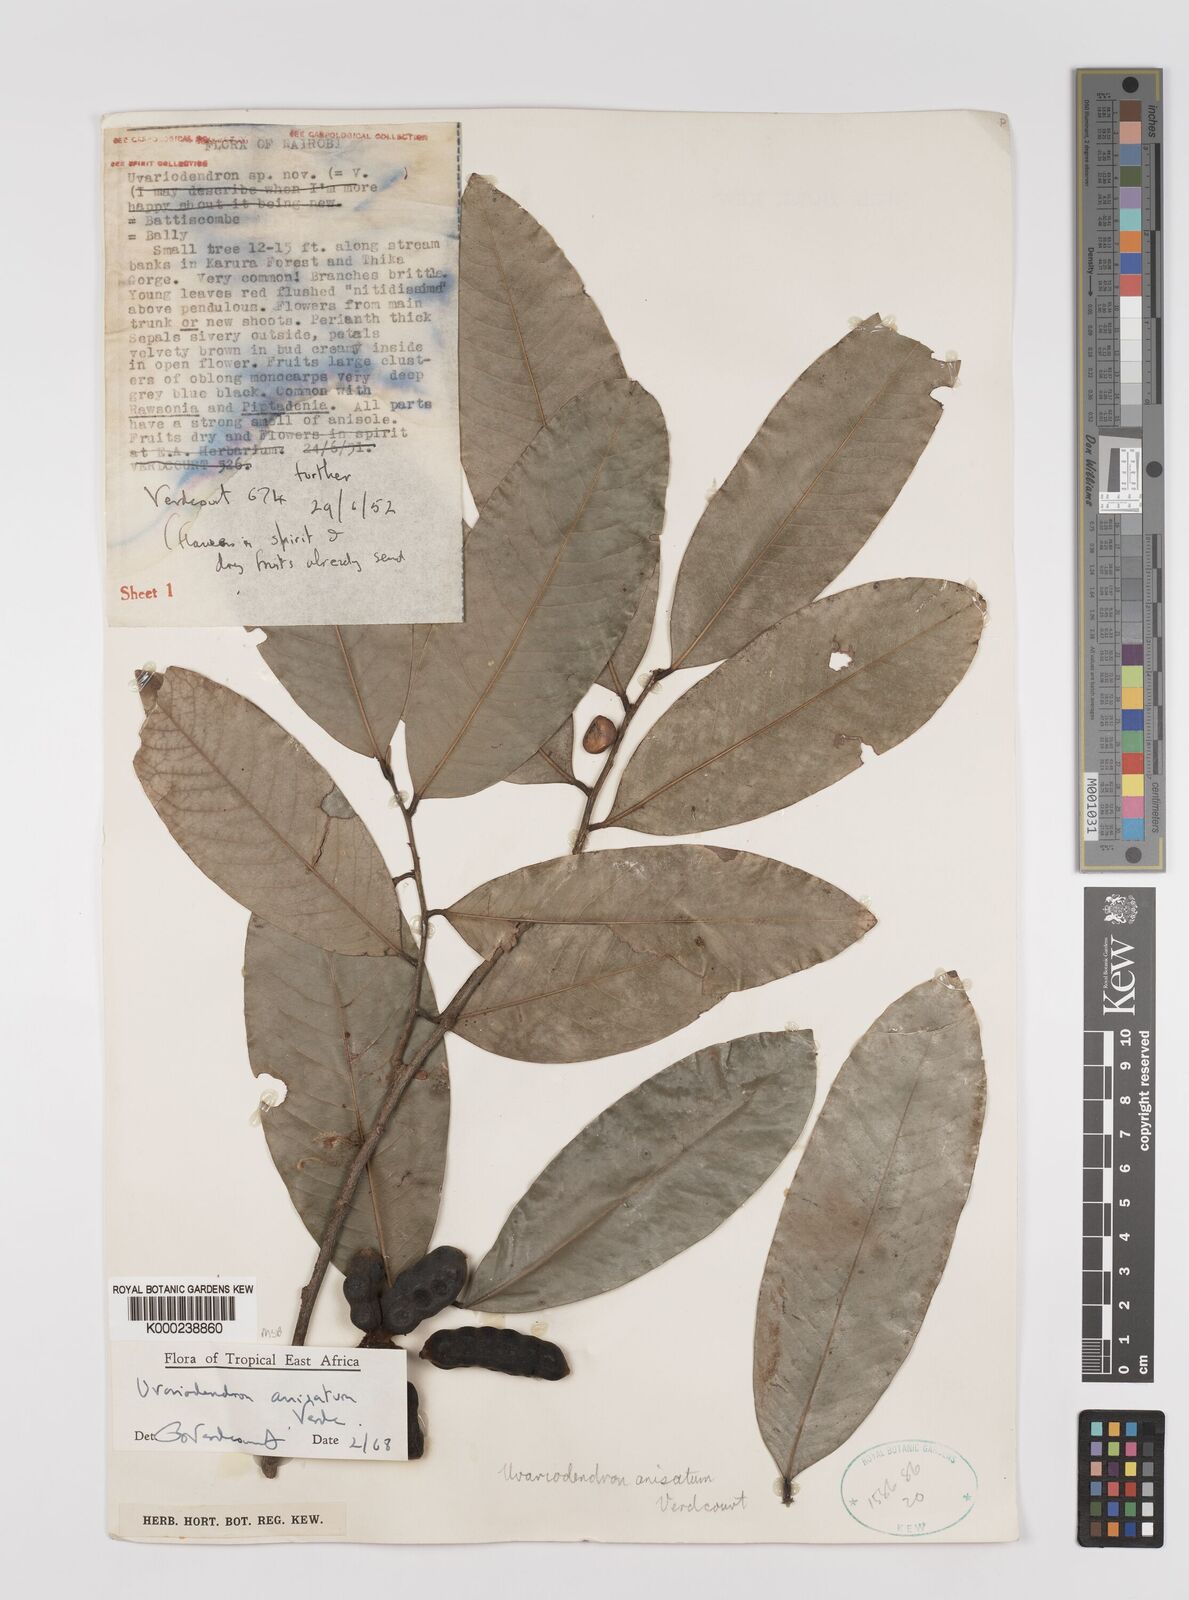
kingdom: Plantae
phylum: Tracheophyta
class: Magnoliopsida
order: Magnoliales
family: Annonaceae
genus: Uvariodendron
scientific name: Uvariodendron anisatum
